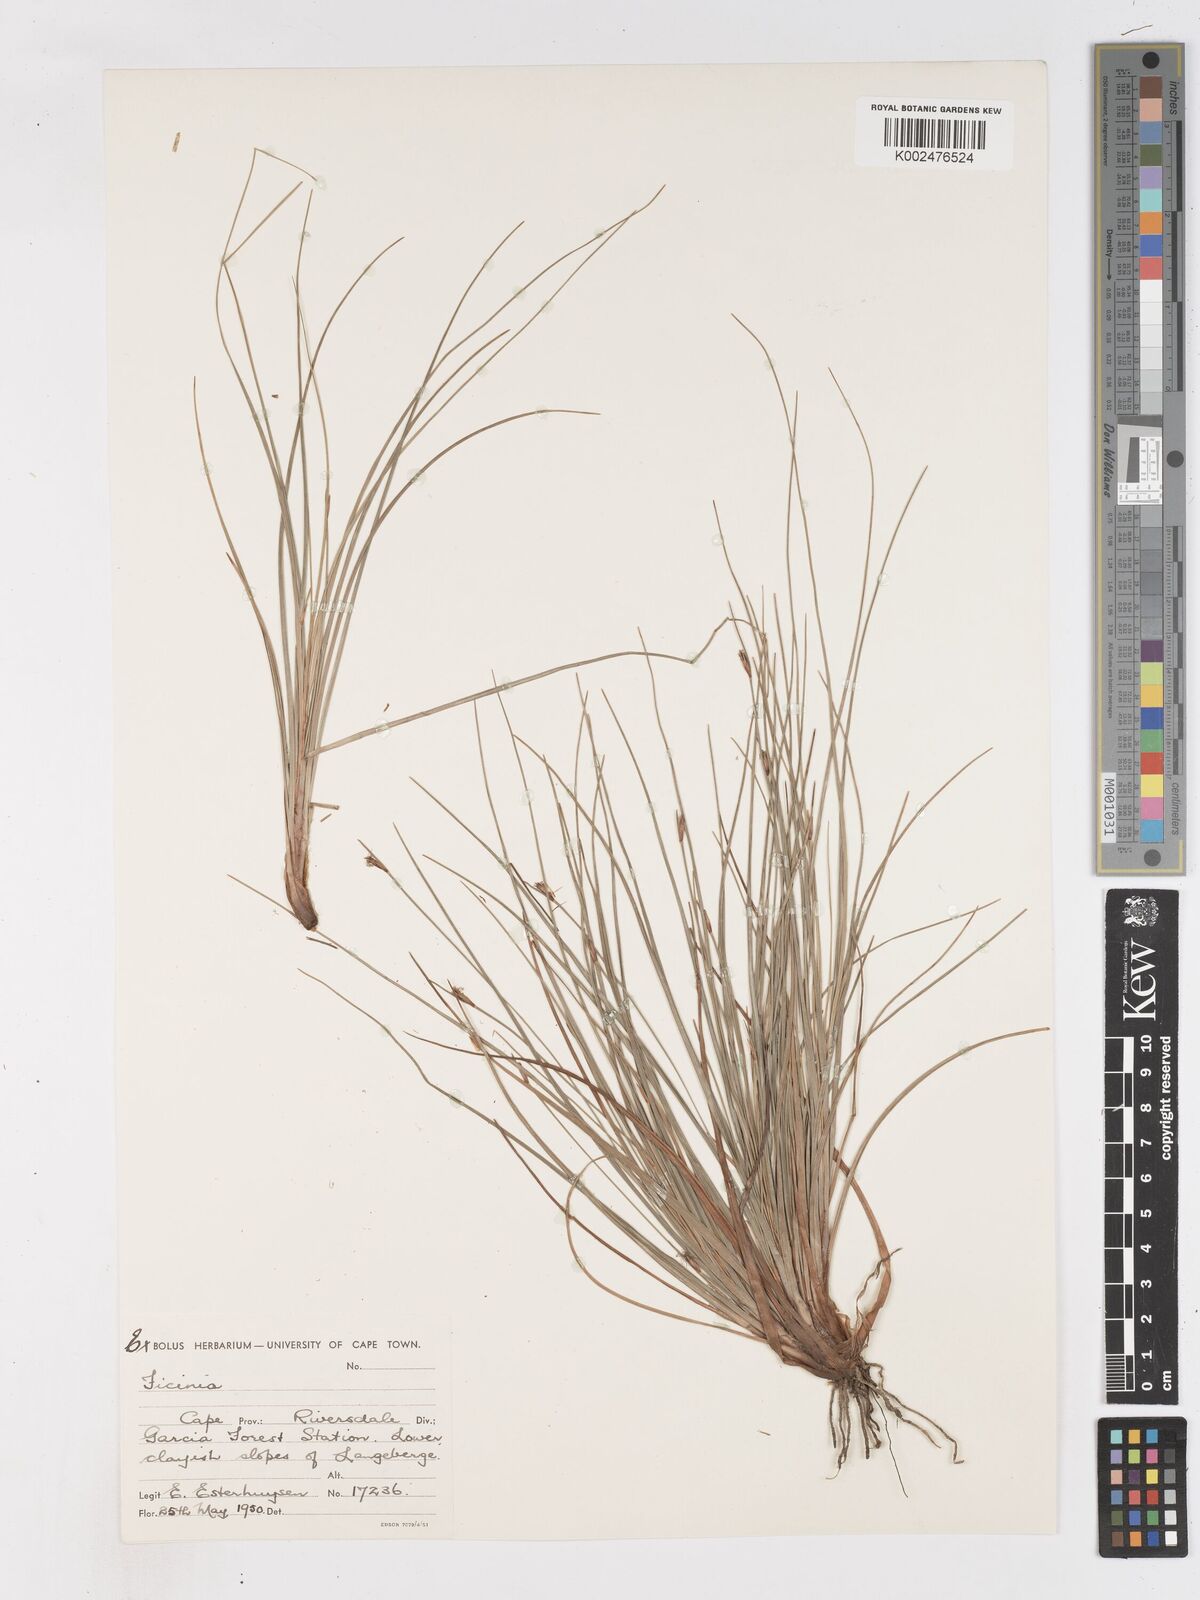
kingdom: Plantae
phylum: Tracheophyta
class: Liliopsida
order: Poales
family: Cyperaceae
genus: Ficinia
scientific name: Ficinia acuminata
